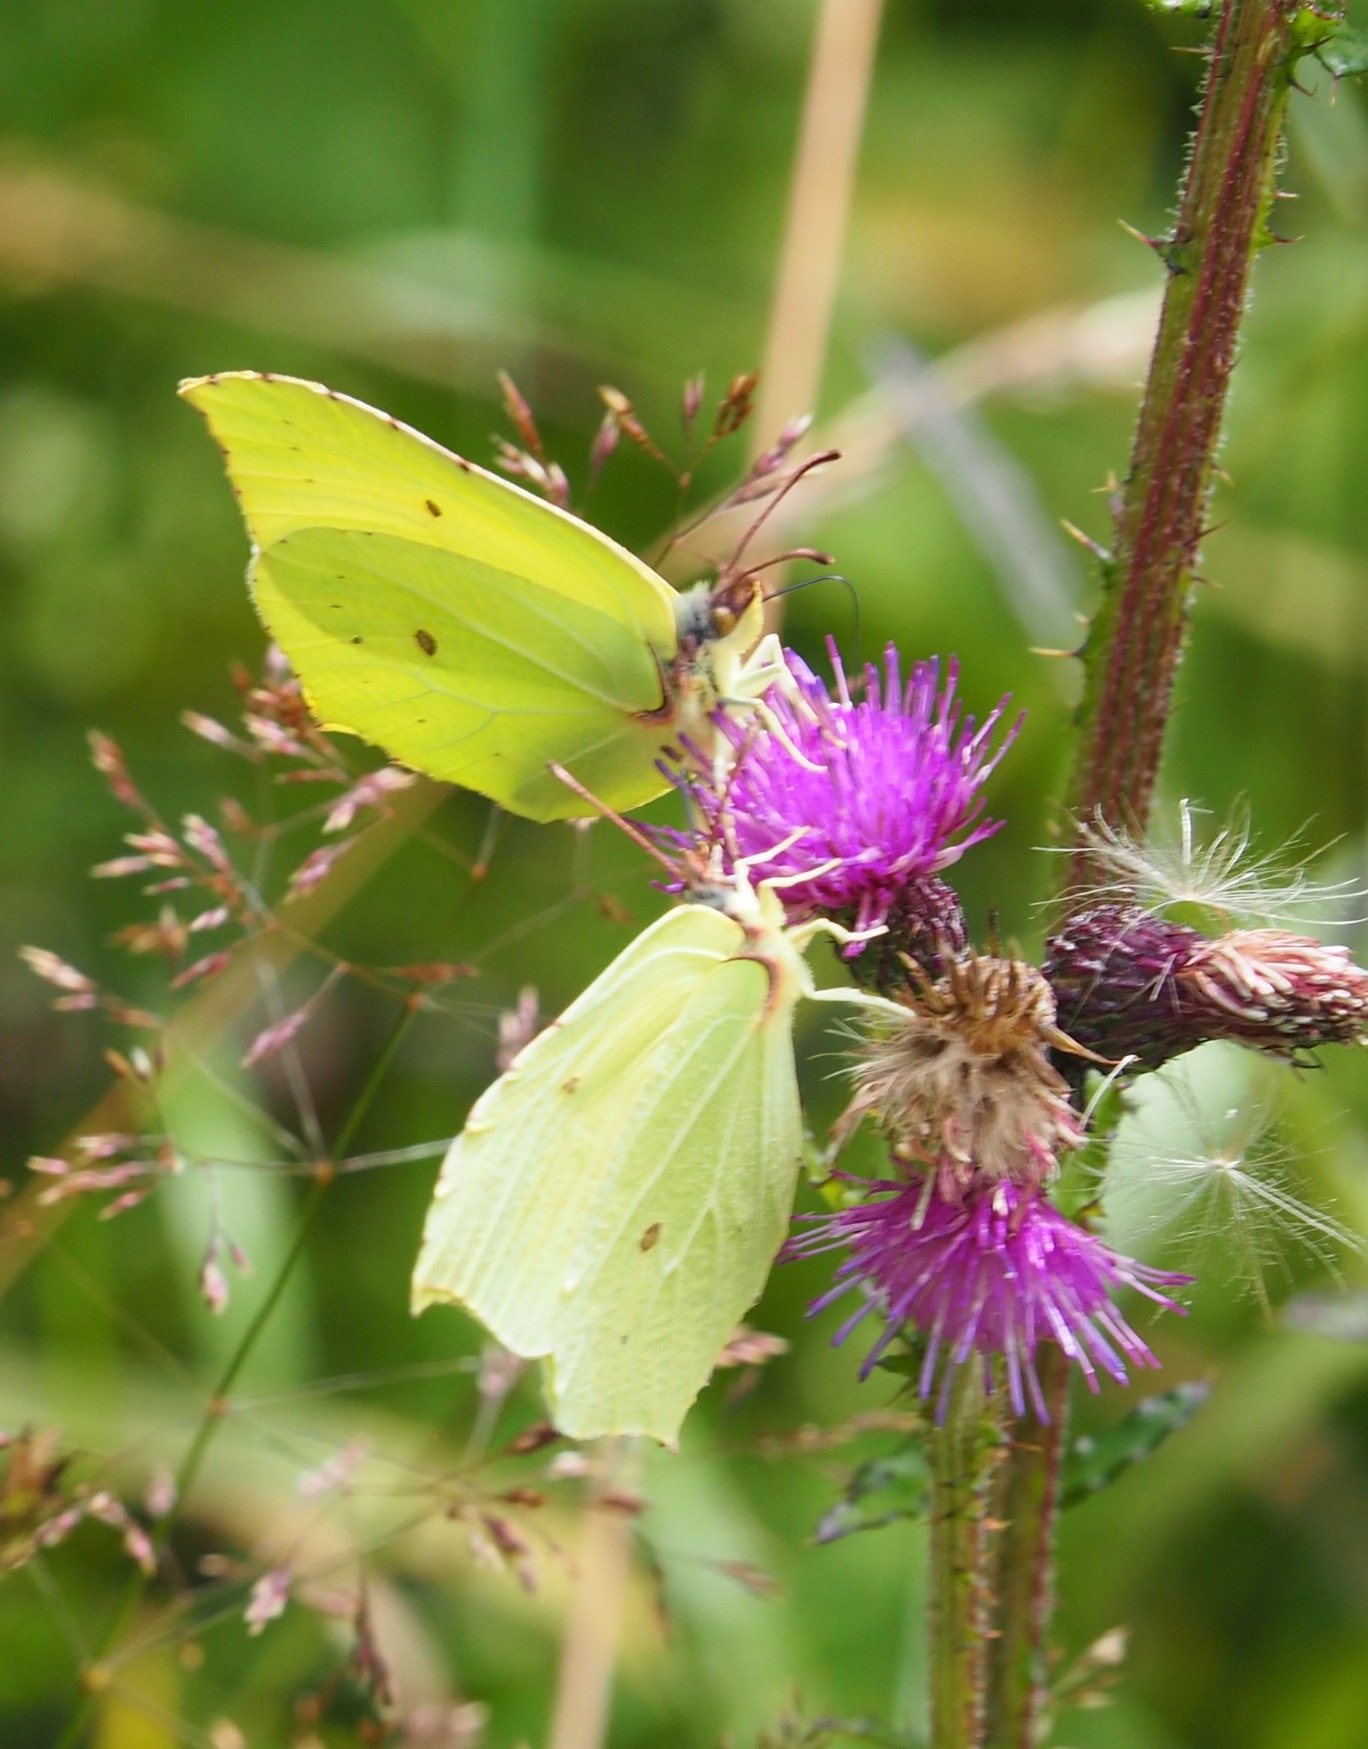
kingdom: Animalia
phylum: Arthropoda
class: Insecta
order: Lepidoptera
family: Pieridae
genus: Gonepteryx
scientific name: Gonepteryx rhamni
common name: Citronsommerfugl
